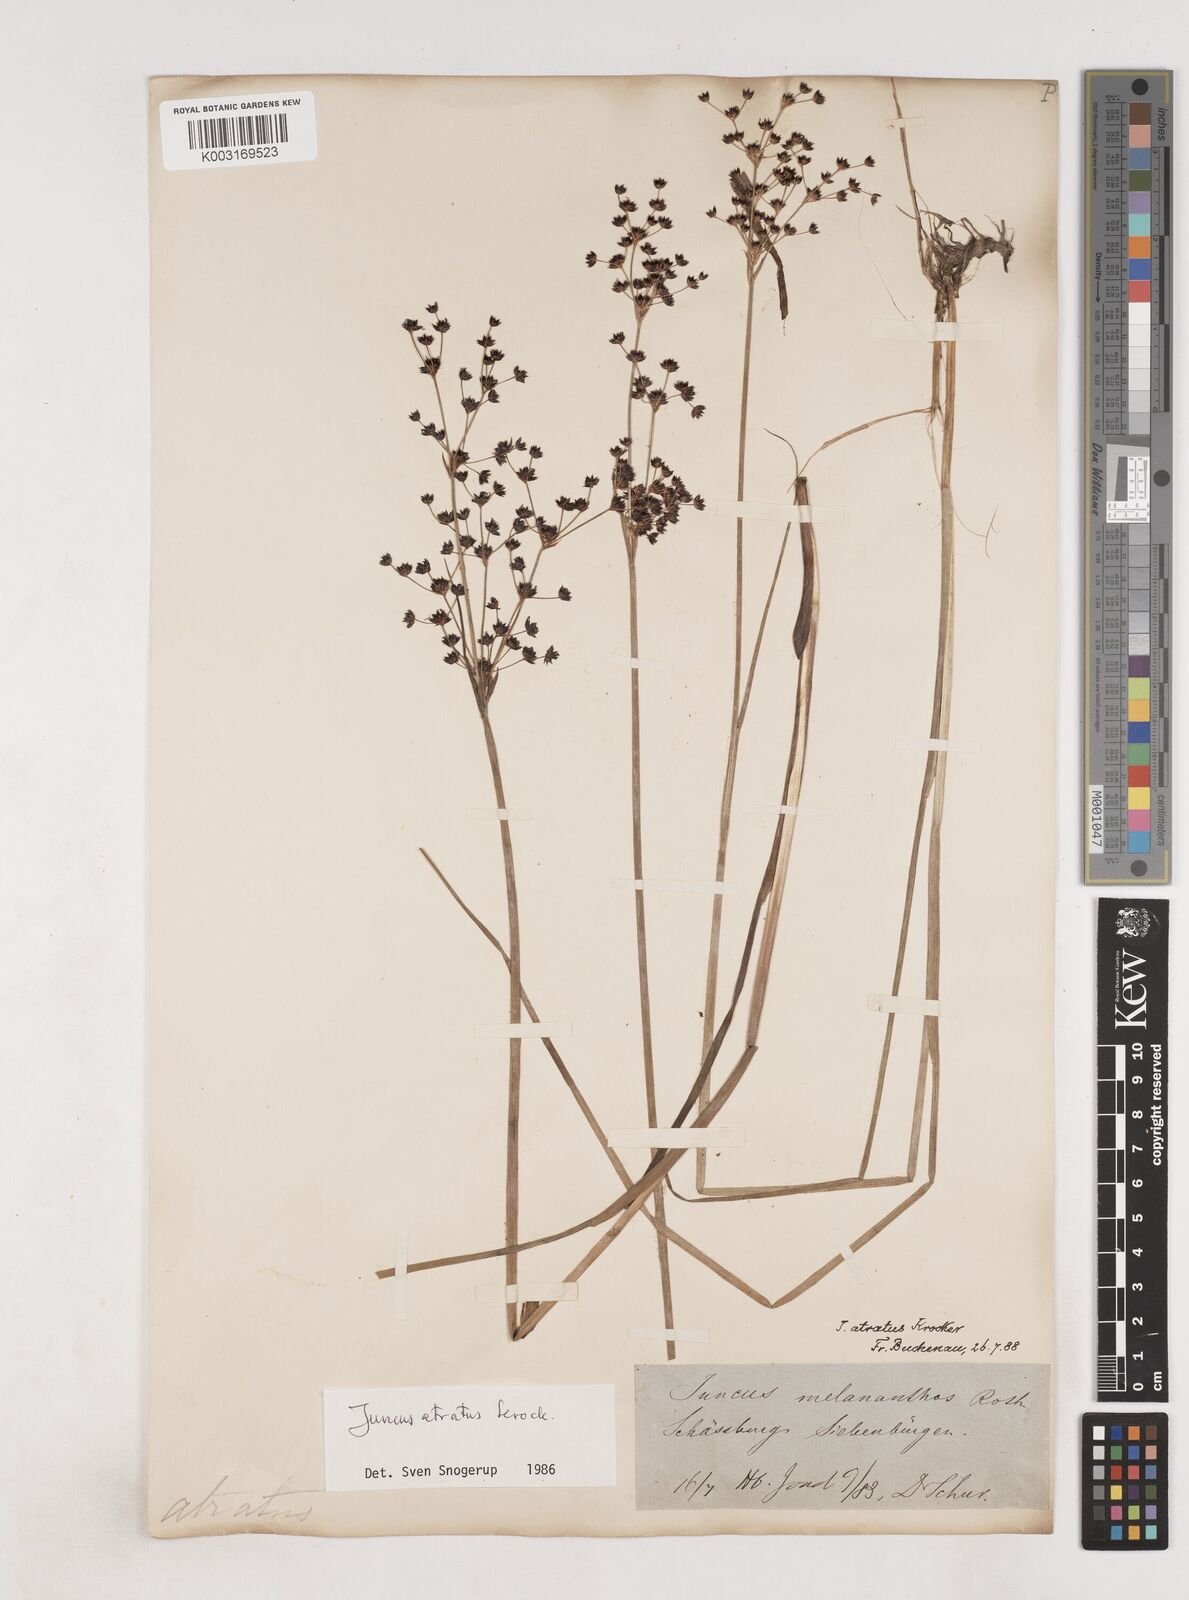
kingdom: Plantae
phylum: Tracheophyta
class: Liliopsida
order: Poales
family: Juncaceae
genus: Juncus
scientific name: Juncus atratus
